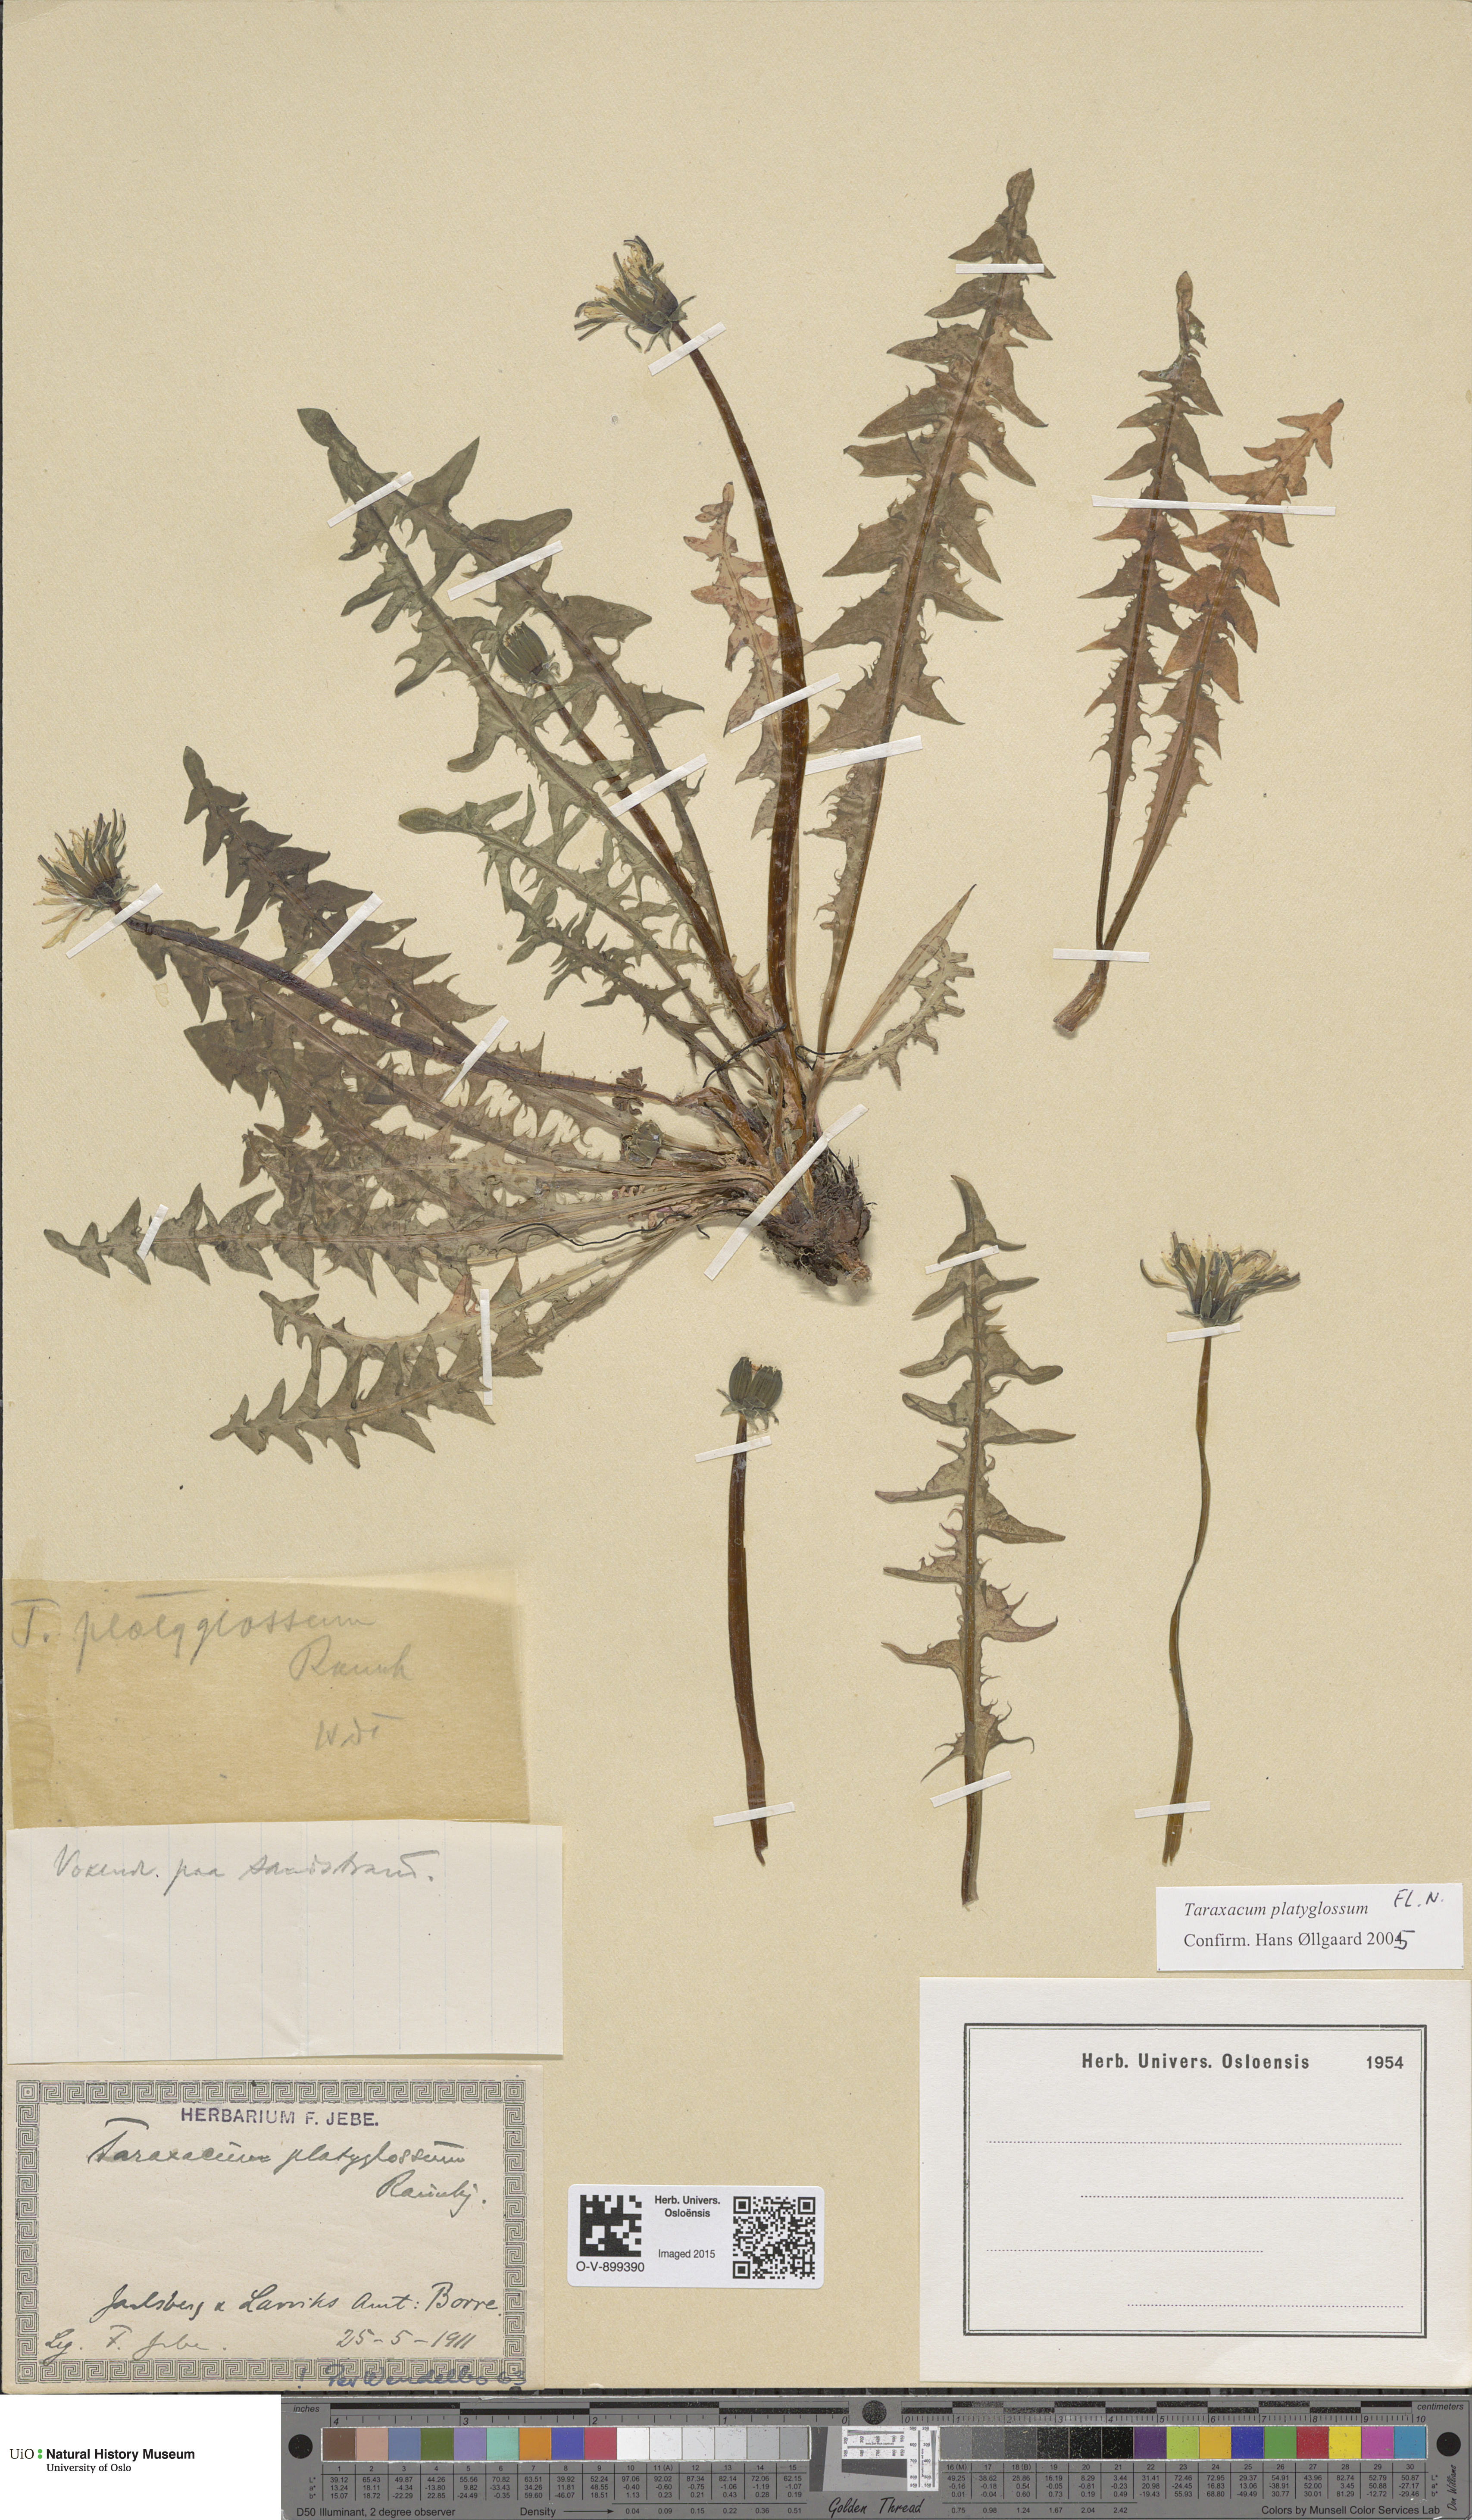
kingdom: Plantae
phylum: Tracheophyta
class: Magnoliopsida
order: Asterales
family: Asteraceae
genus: Taraxacum
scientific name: Taraxacum platyglossum
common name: Tongue-leaved dandelion
